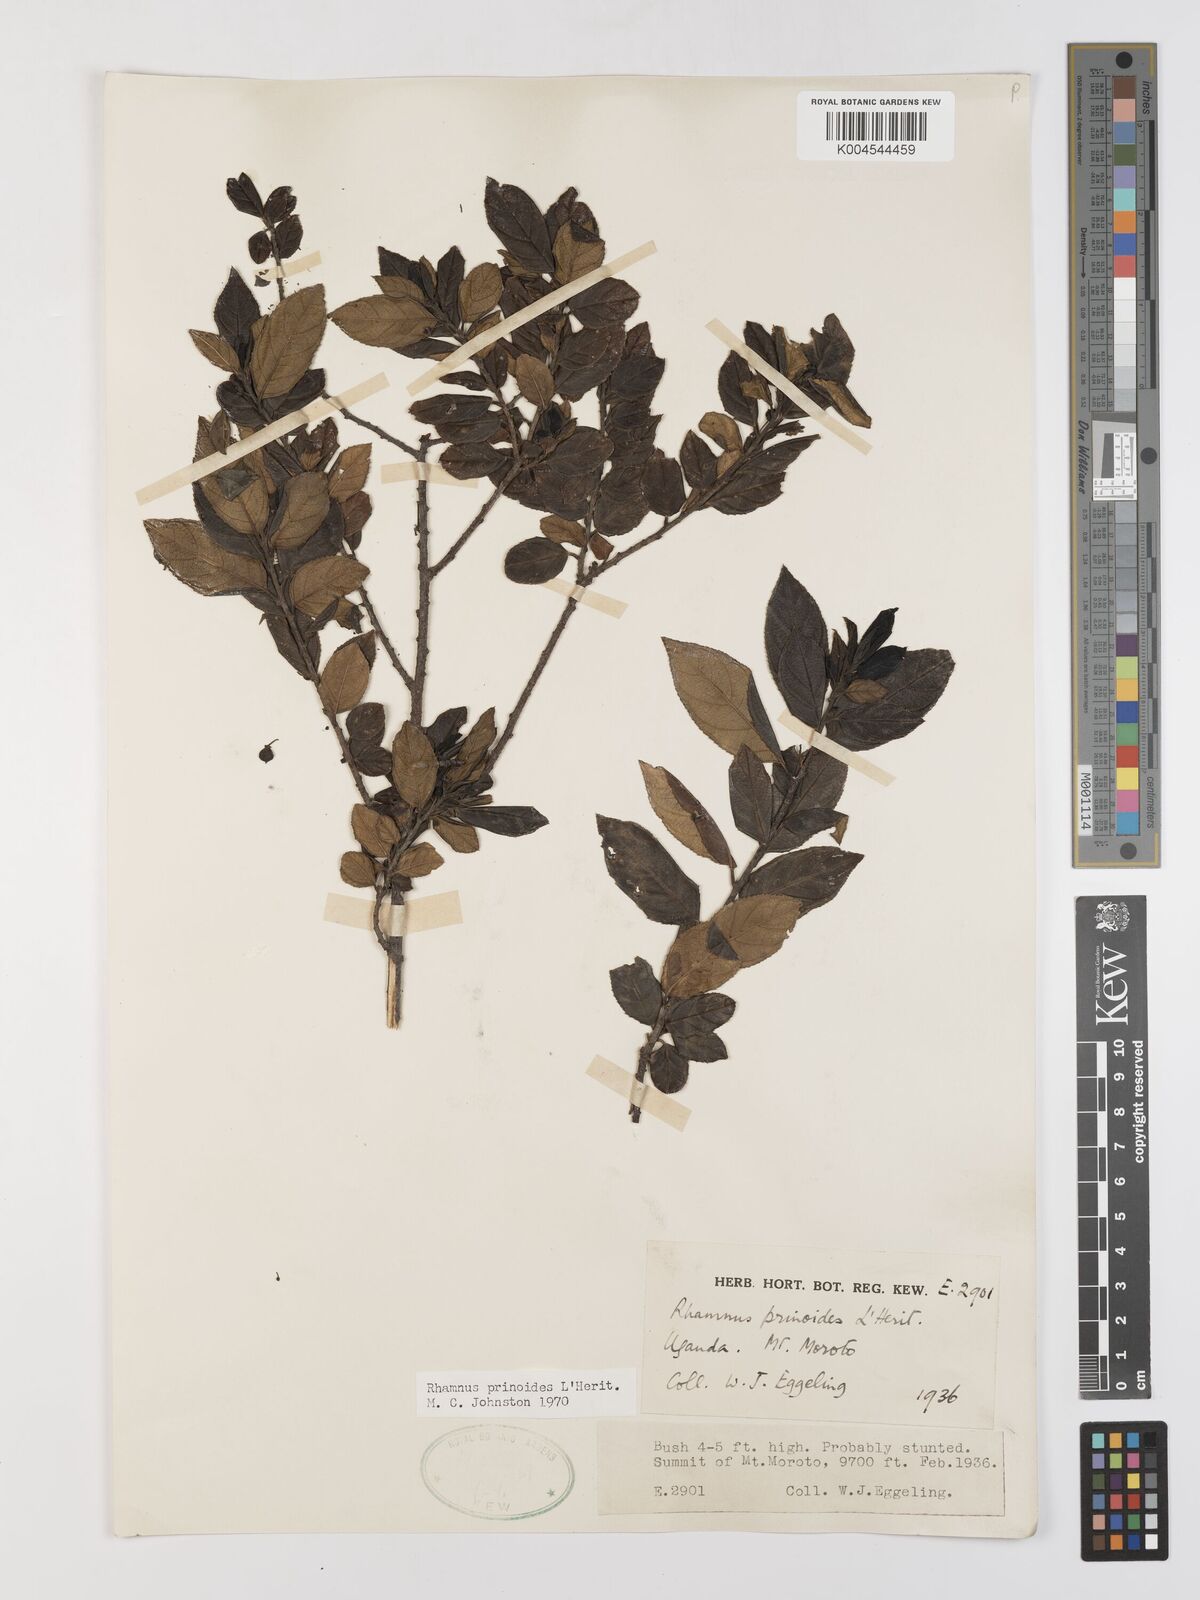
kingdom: Plantae
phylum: Tracheophyta
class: Magnoliopsida
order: Rosales
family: Rhamnaceae
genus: Rhamnus
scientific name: Rhamnus prinoides
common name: Dogwood
